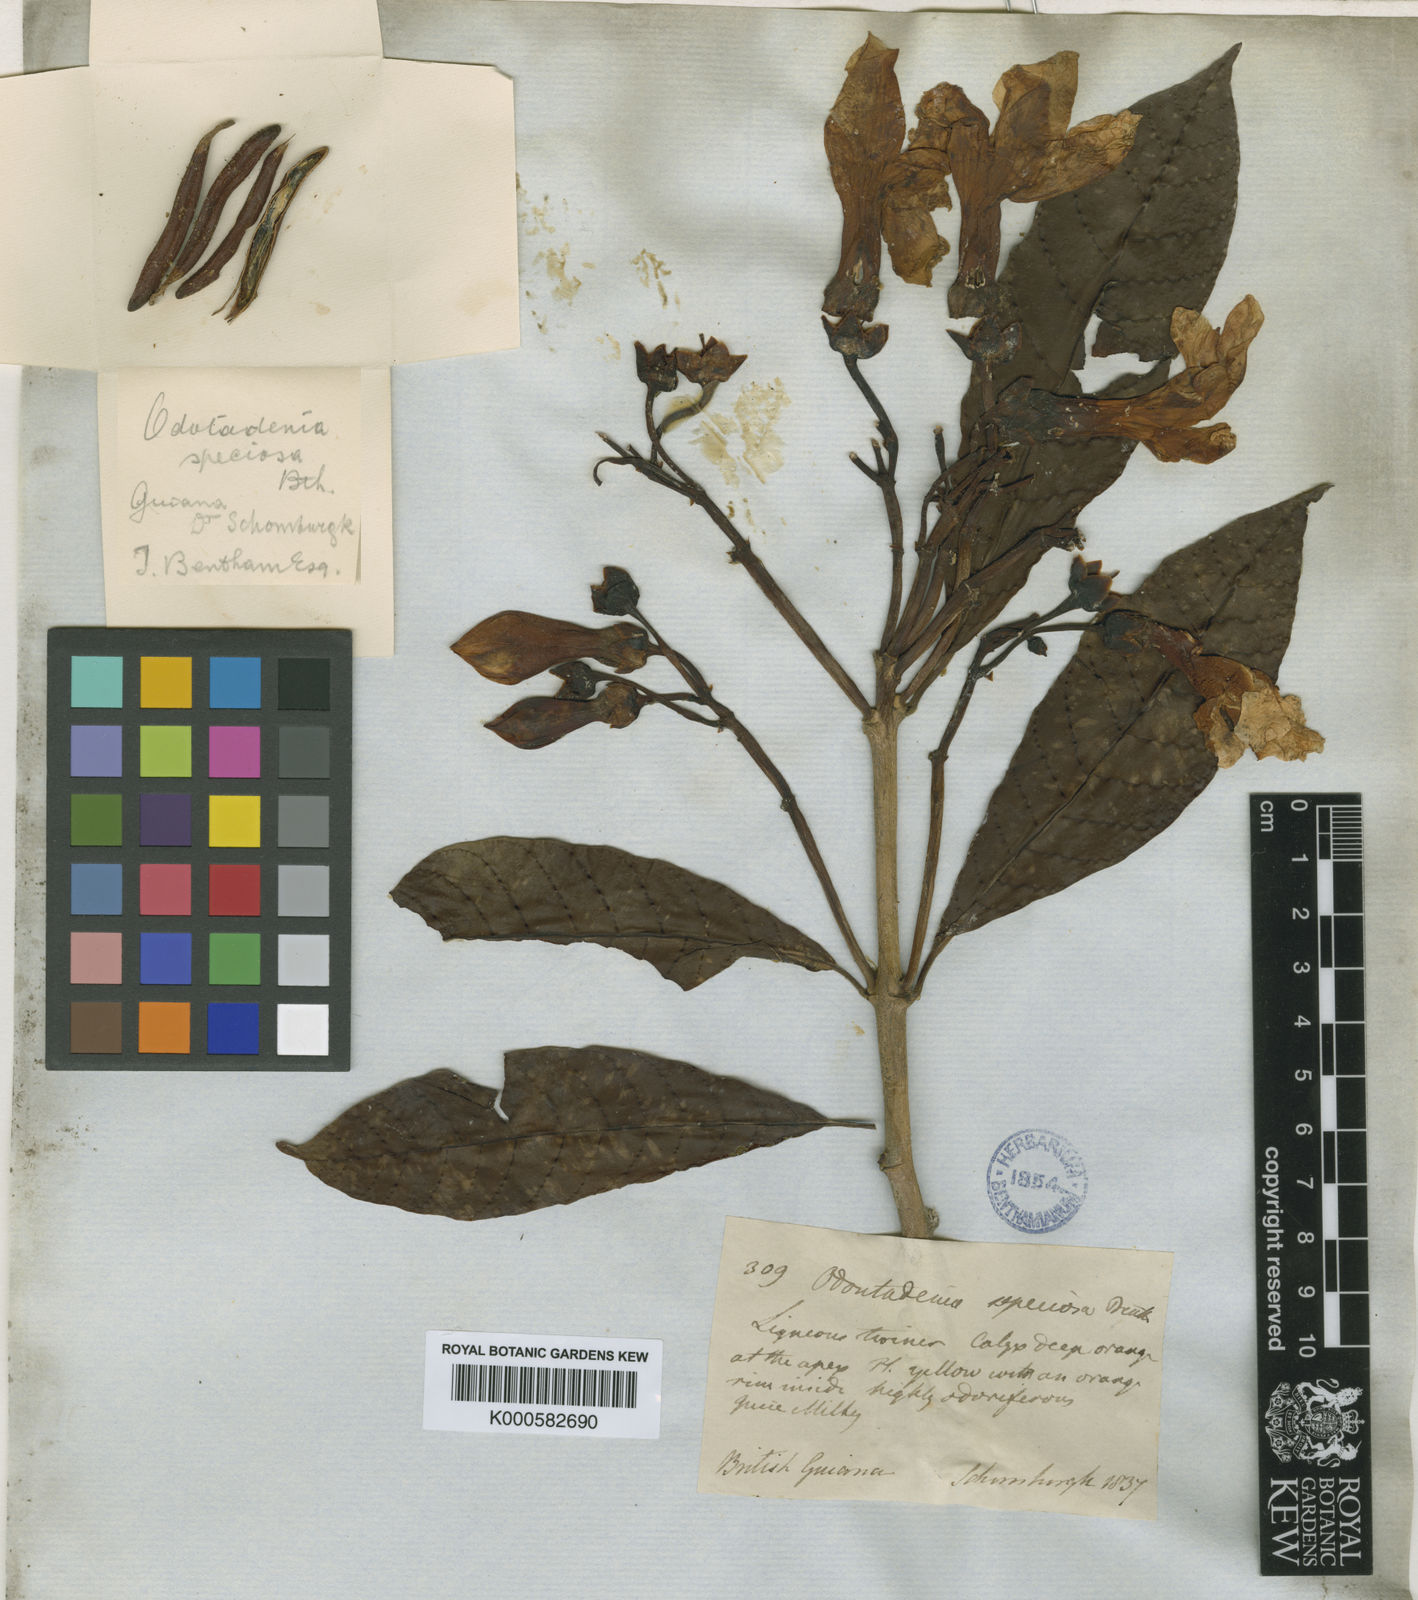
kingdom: Plantae
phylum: Tracheophyta
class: Magnoliopsida
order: Gentianales
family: Apocynaceae
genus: Odontadenia
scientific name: Odontadenia semidigyna
